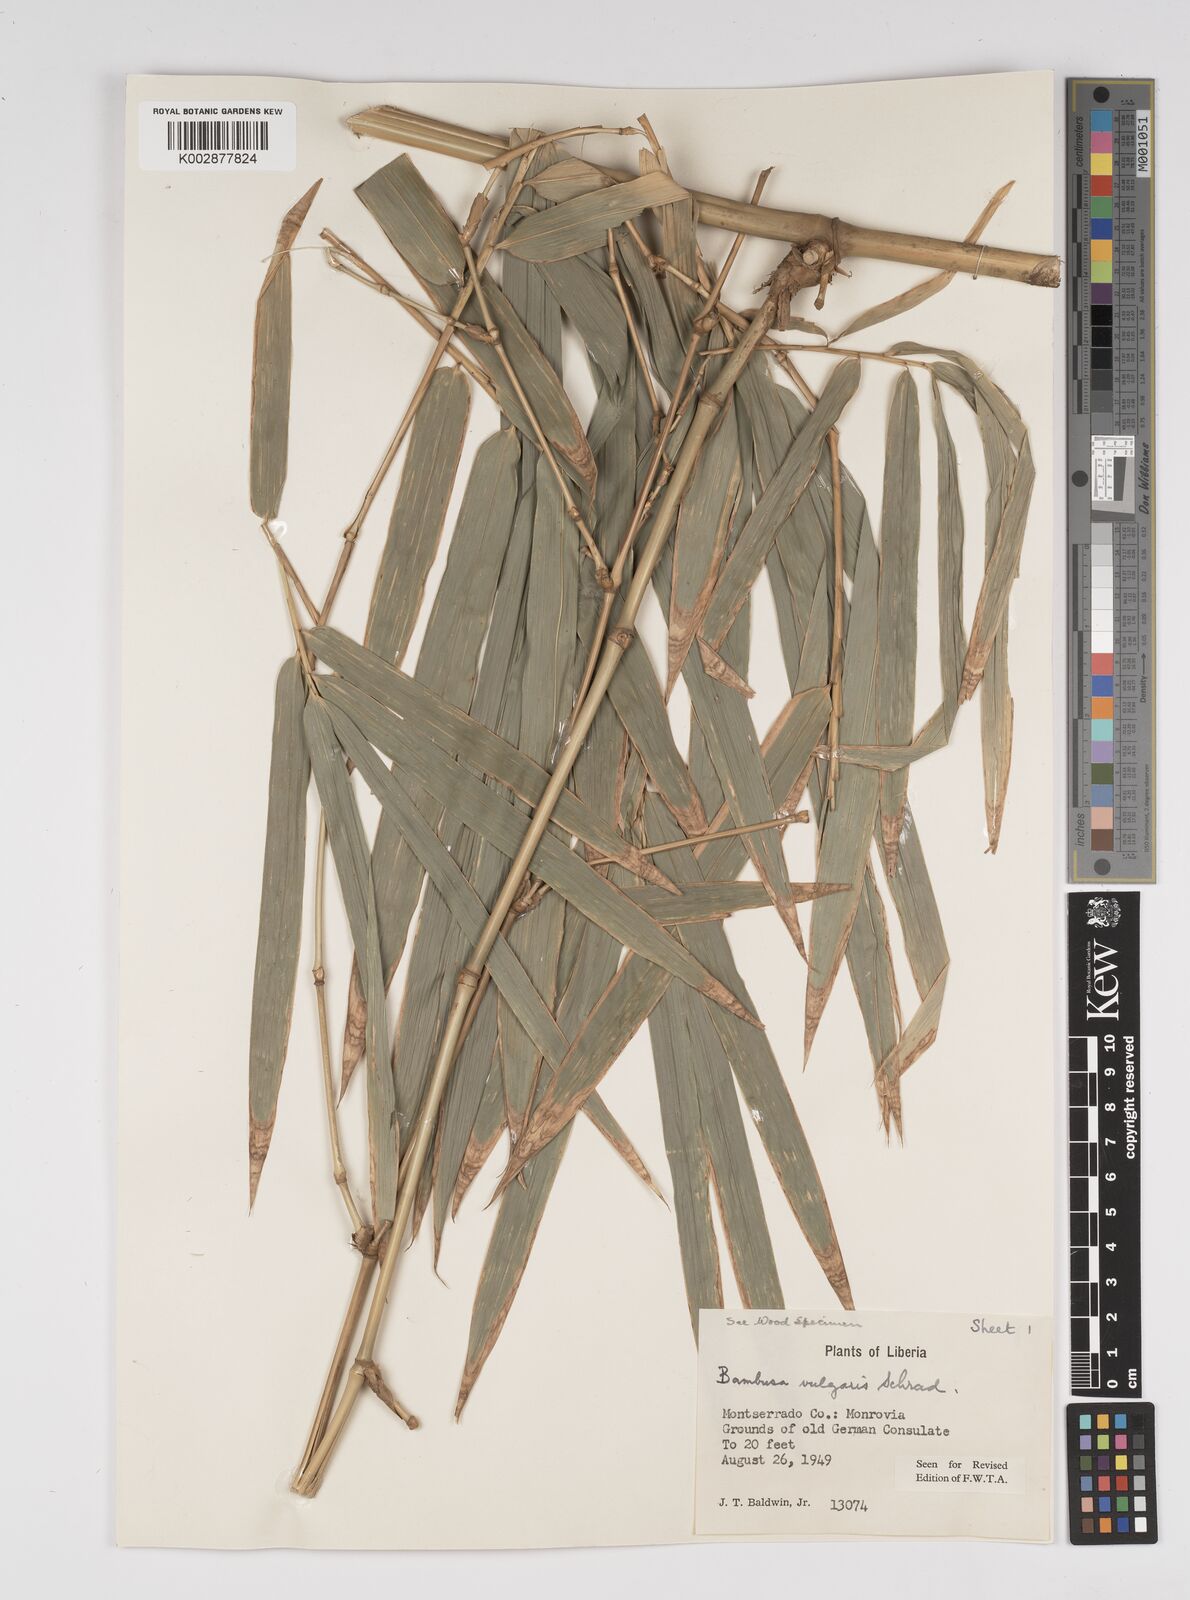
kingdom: Plantae
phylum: Tracheophyta
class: Liliopsida
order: Poales
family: Poaceae
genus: Bambusa
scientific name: Bambusa vulgaris
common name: Common bamboo
